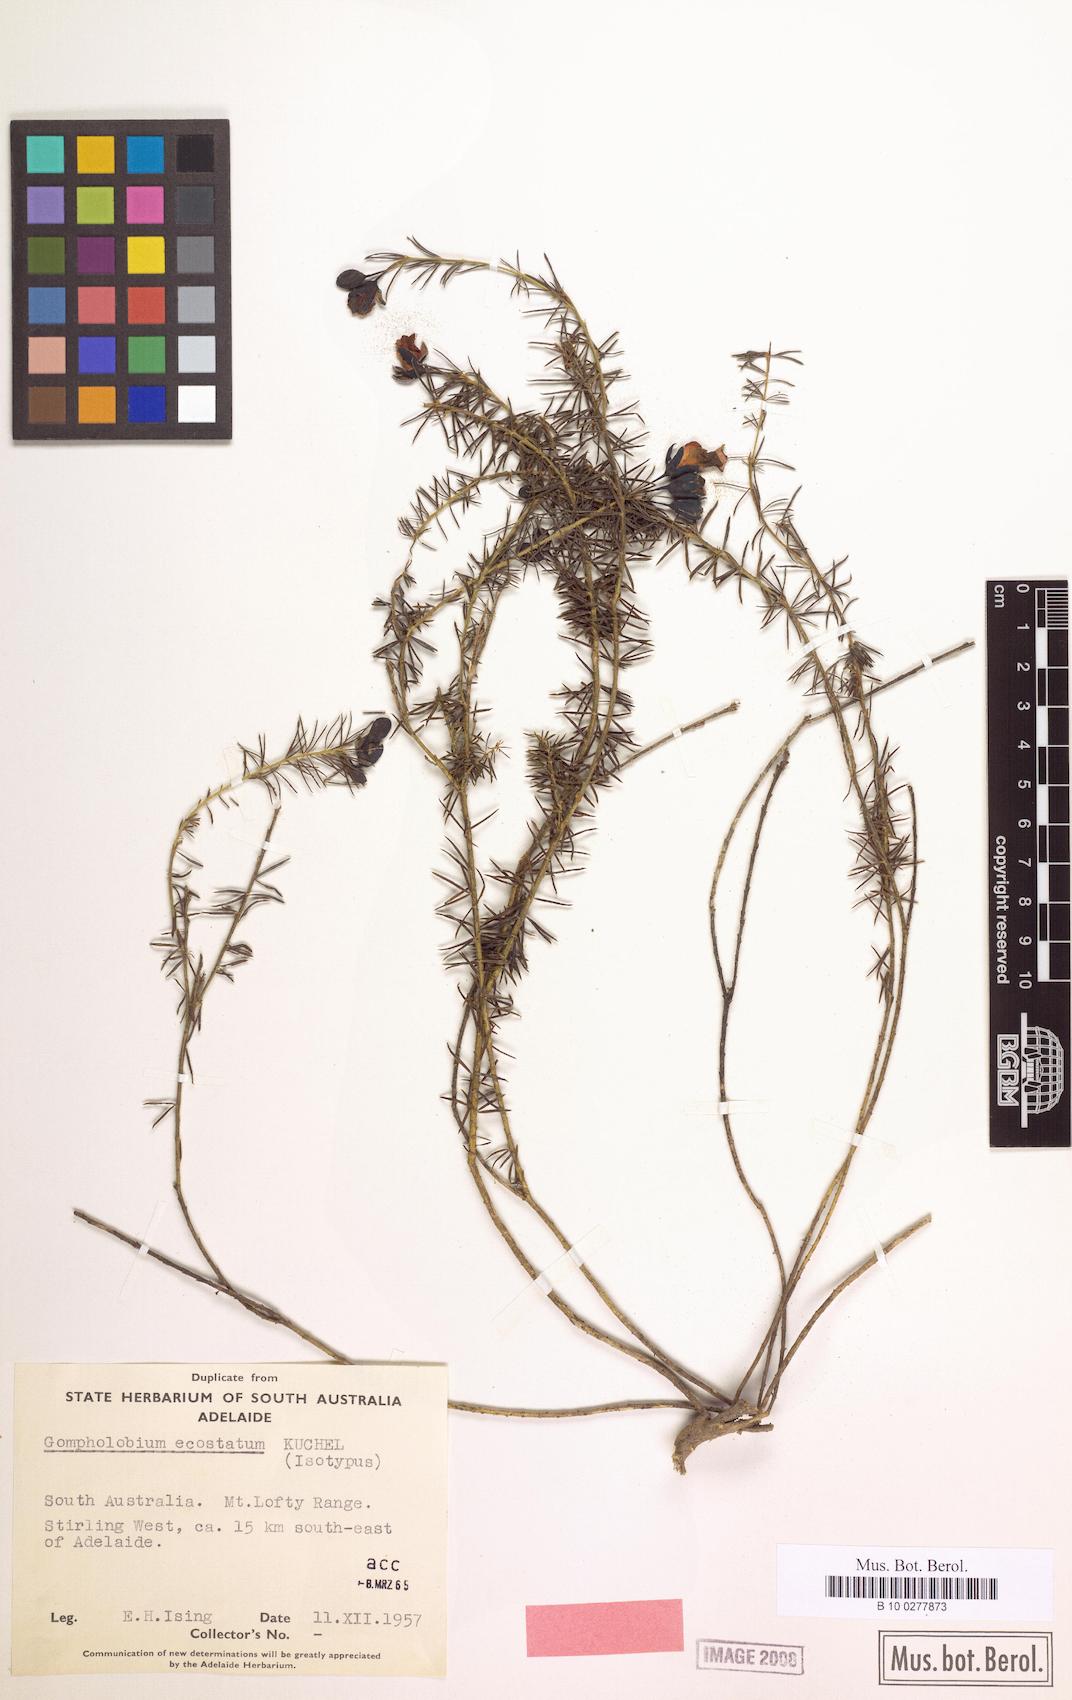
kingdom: Plantae
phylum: Tracheophyta
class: Magnoliopsida
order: Fabales
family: Fabaceae
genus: Gompholobium
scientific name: Gompholobium ecostatum
